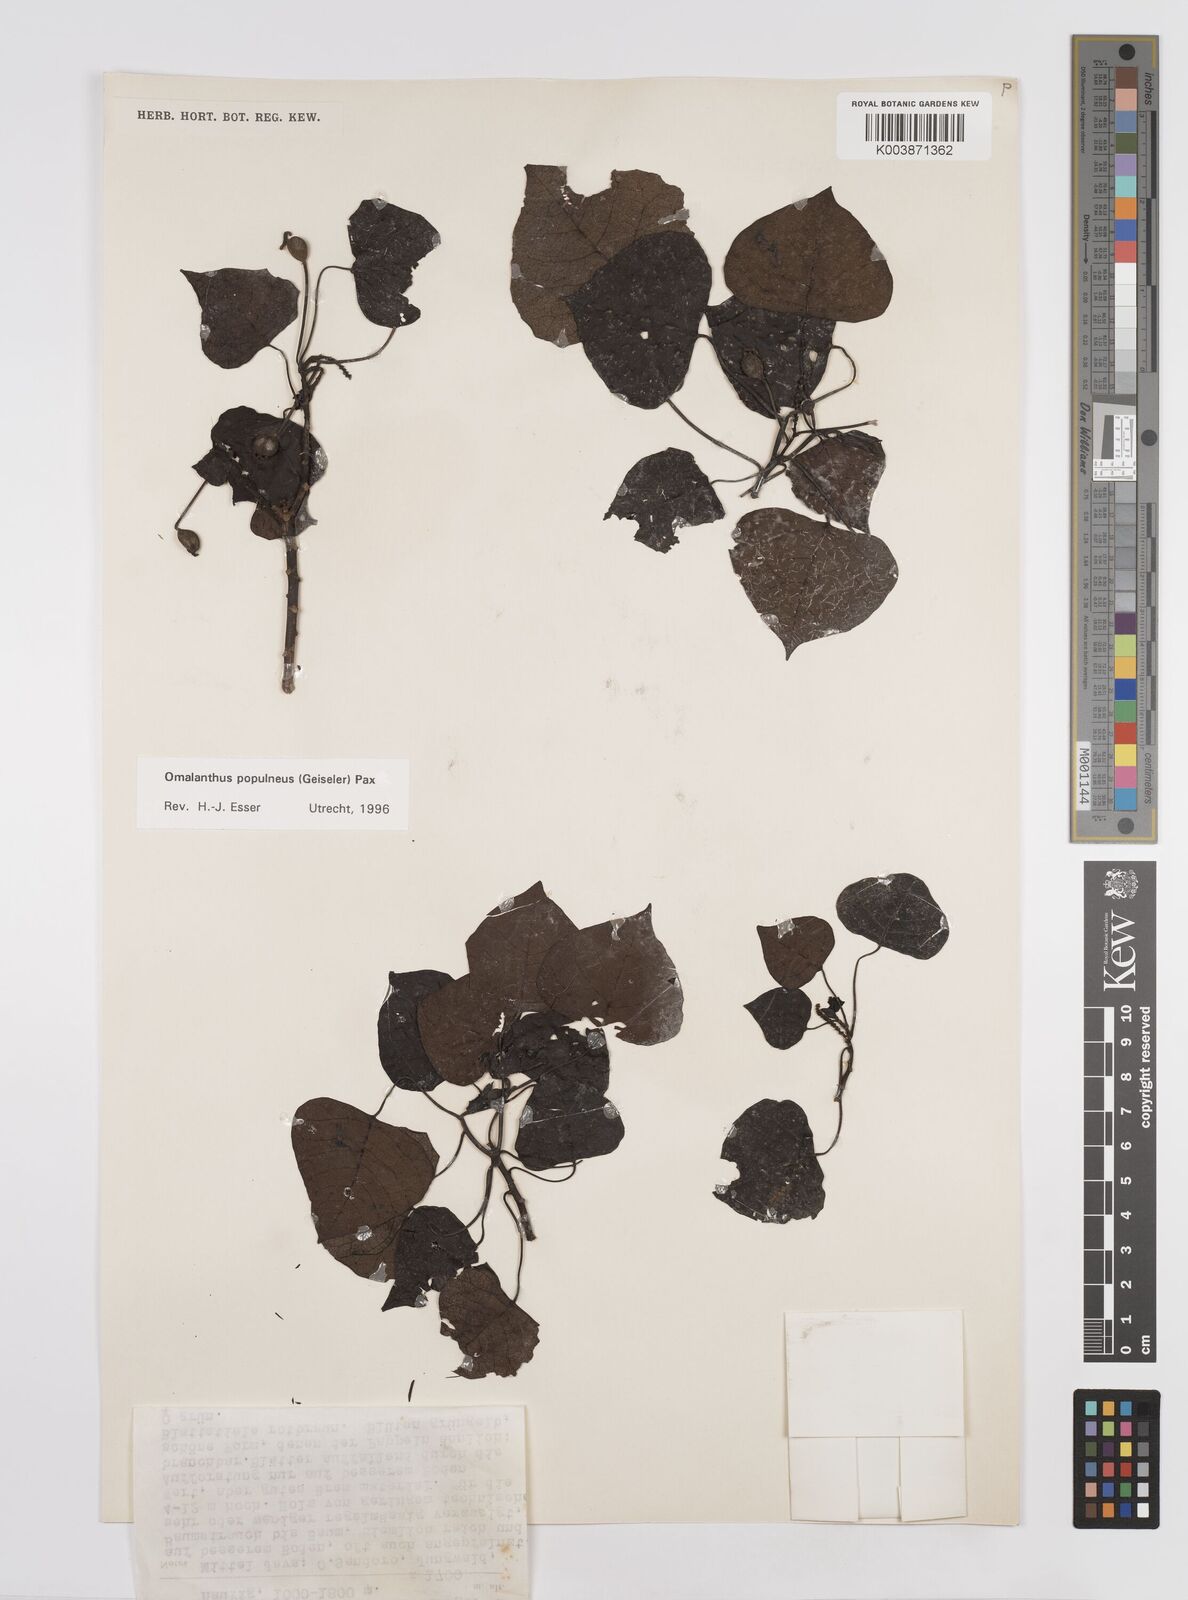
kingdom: Plantae
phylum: Tracheophyta
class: Magnoliopsida
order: Malpighiales
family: Euphorbiaceae
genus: Homalanthus
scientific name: Homalanthus populneus
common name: Spurge
